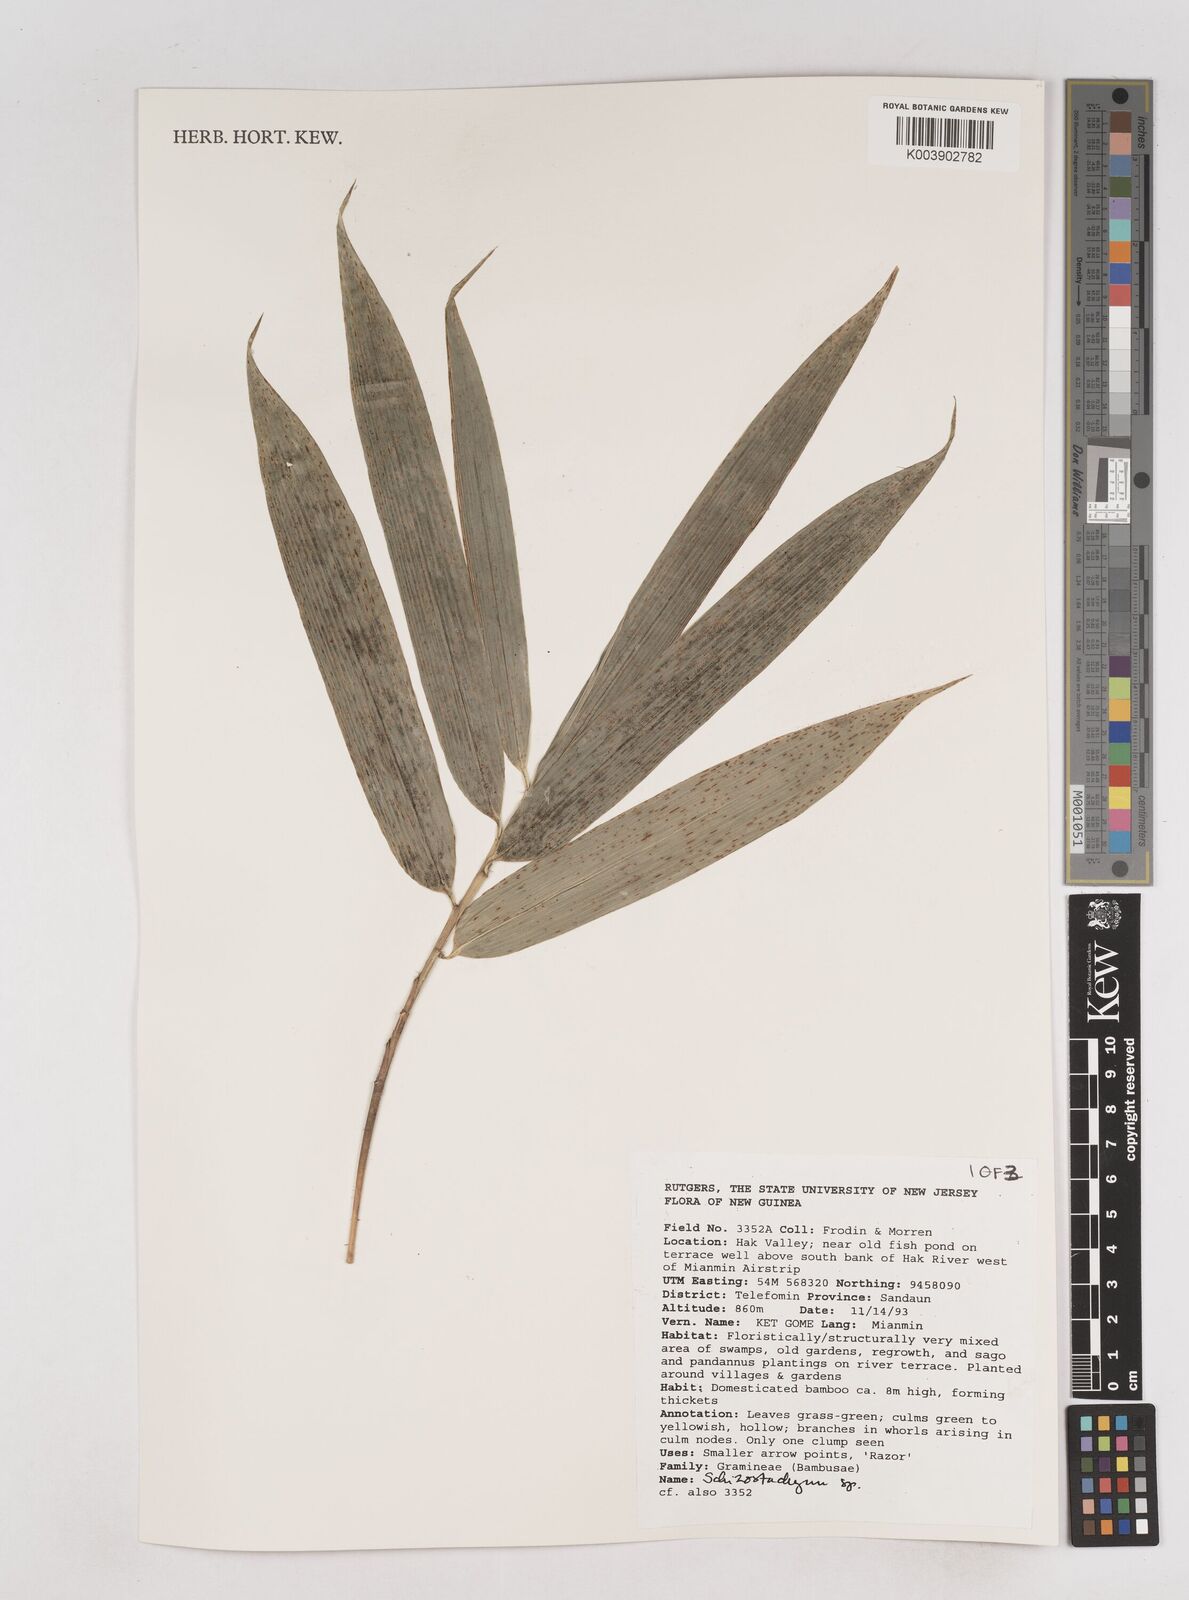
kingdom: Plantae
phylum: Tracheophyta
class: Liliopsida
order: Poales
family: Poaceae
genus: Schizostachyum
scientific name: Schizostachyum
